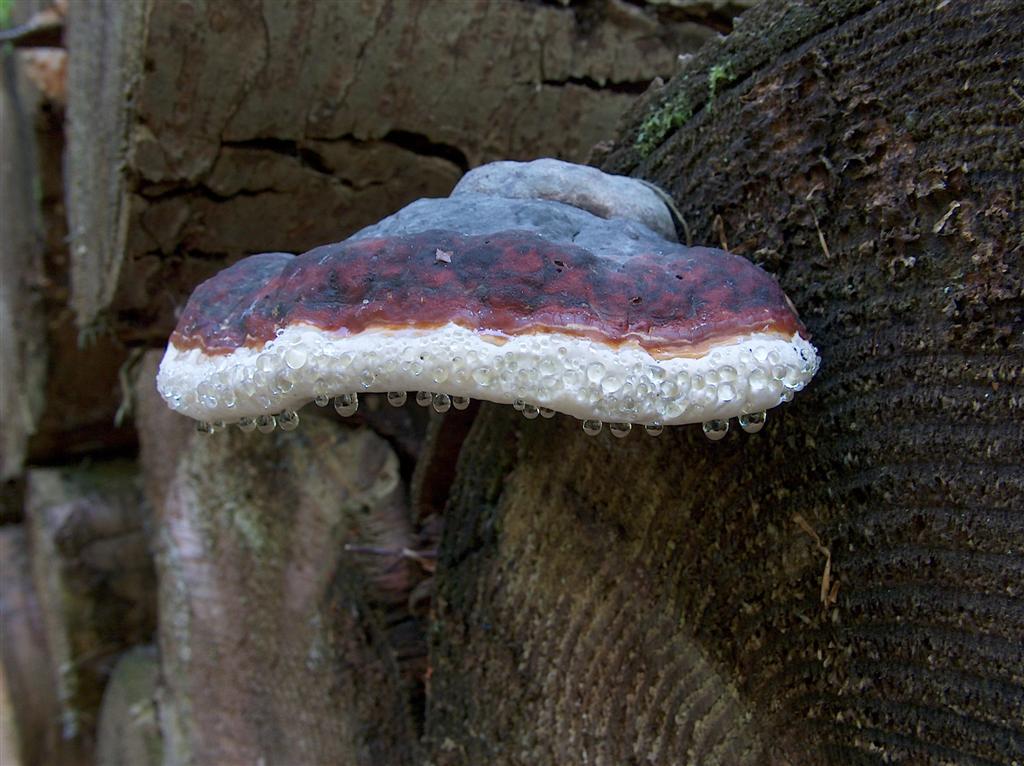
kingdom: Fungi
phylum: Basidiomycota
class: Agaricomycetes
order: Polyporales
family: Fomitopsidaceae
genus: Fomitopsis
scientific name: Fomitopsis pinicola
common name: randbæltet hovporesvamp
